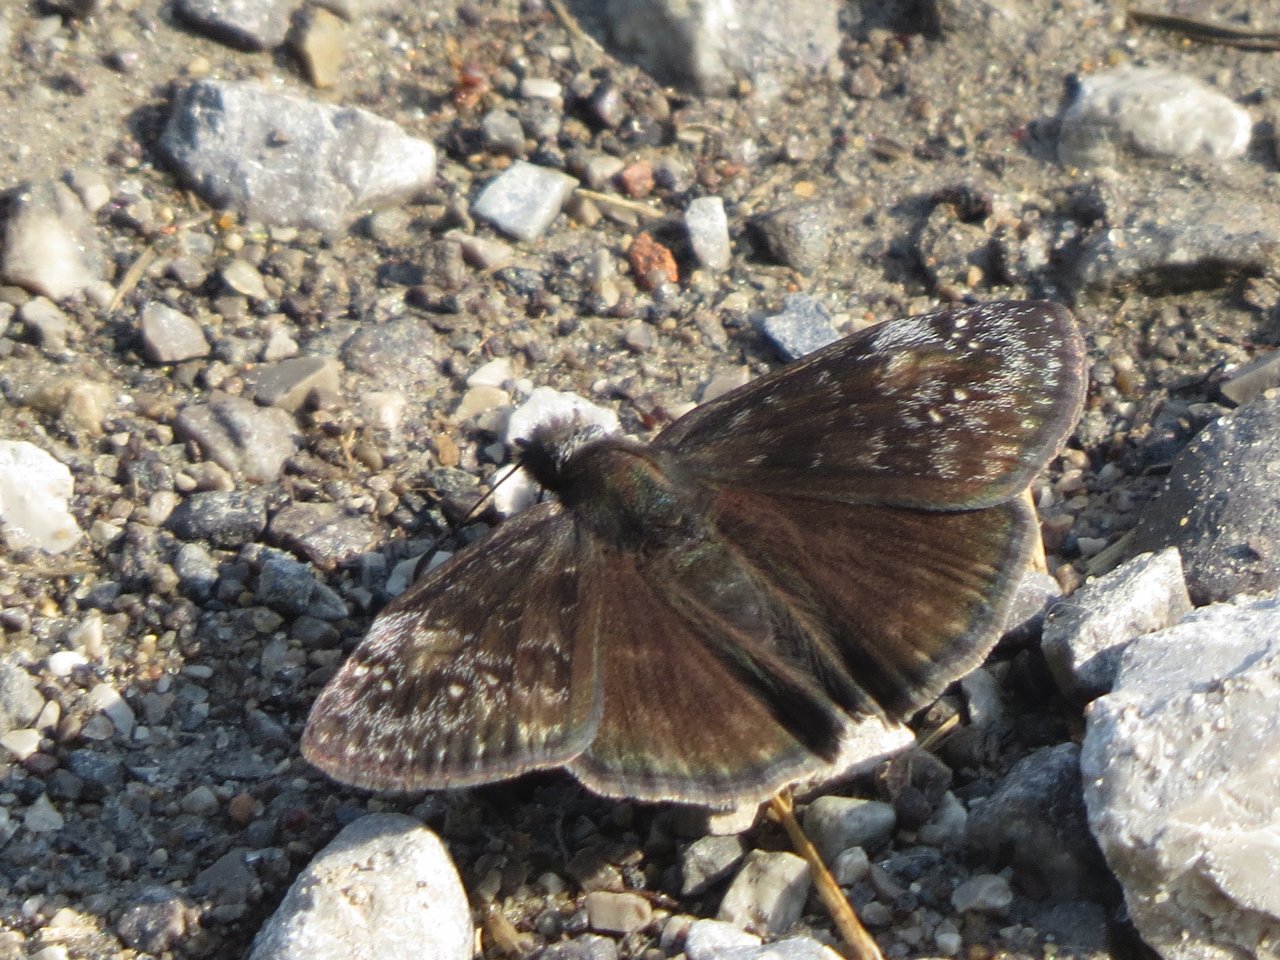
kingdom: Animalia
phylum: Arthropoda
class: Insecta
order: Lepidoptera
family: Hesperiidae
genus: Gesta
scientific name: Gesta
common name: Wild Indigo Duskywing
